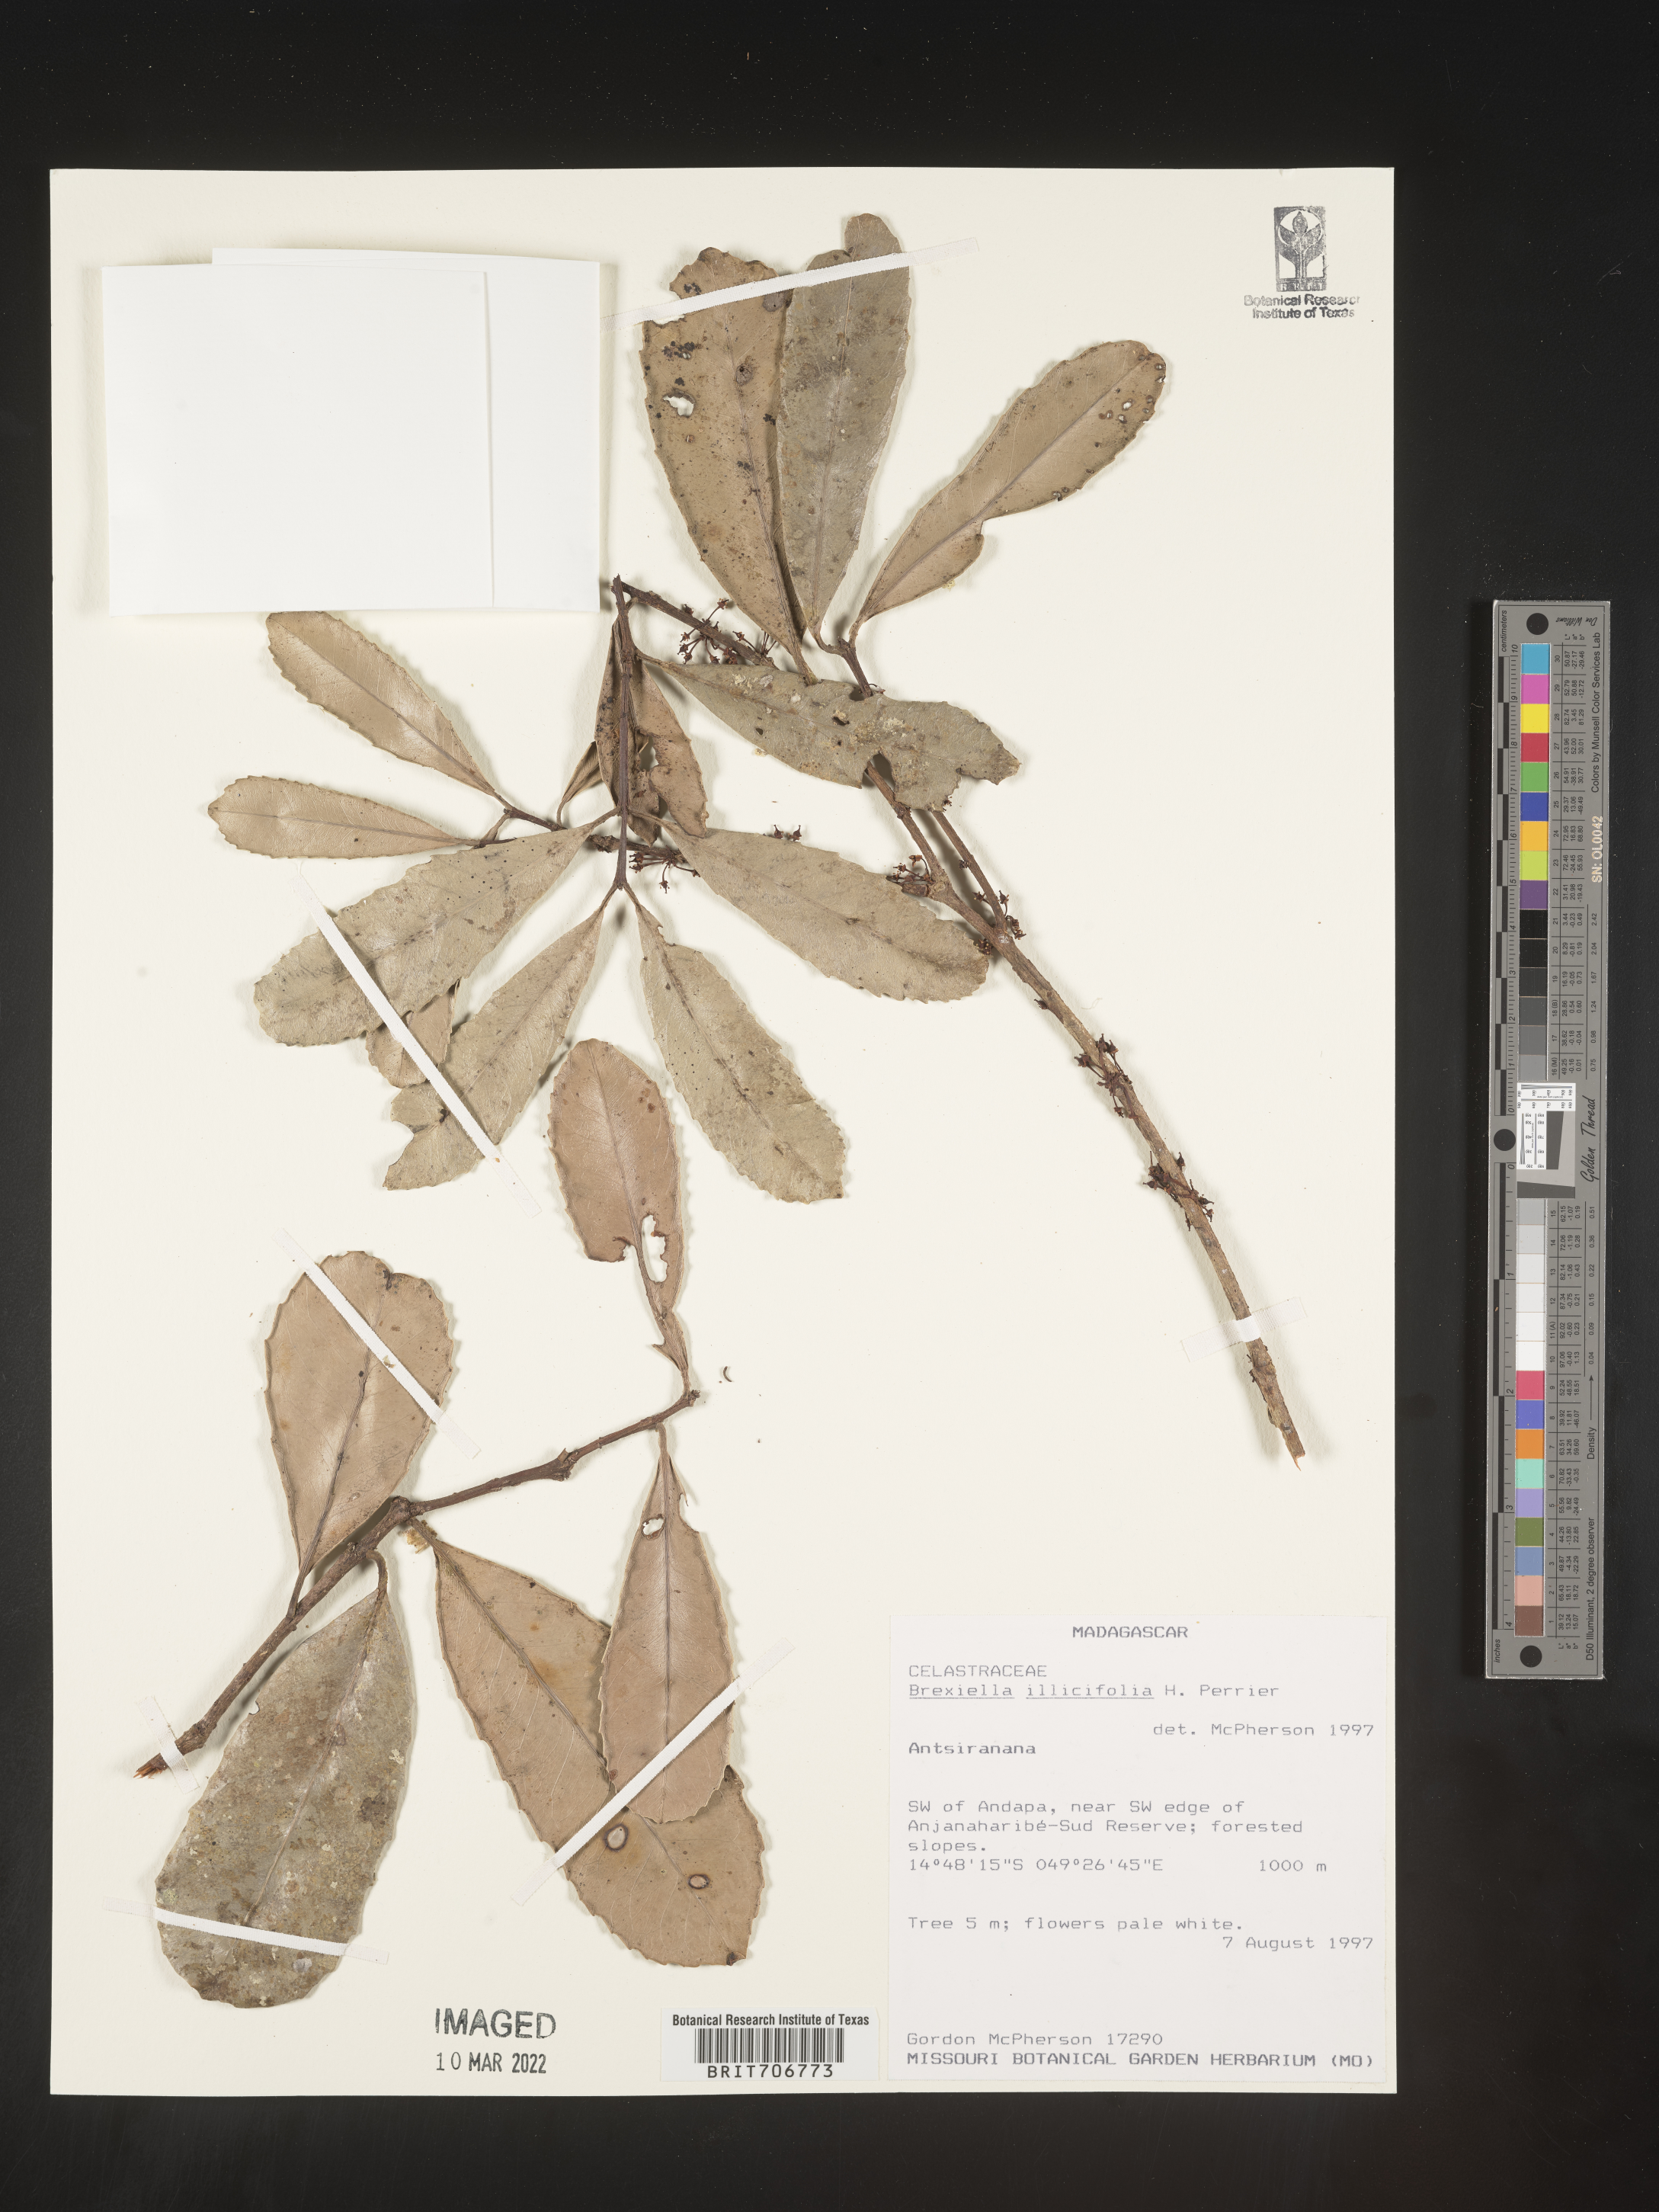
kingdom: Plantae
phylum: Tracheophyta
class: Magnoliopsida
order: Celastrales
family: Celastraceae
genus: Brexiella
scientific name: Brexiella
